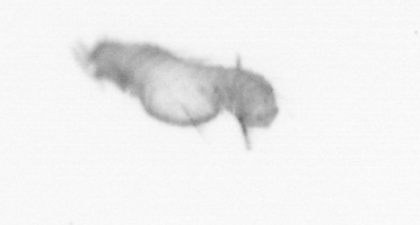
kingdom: Animalia
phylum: Annelida
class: Polychaeta
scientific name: Polychaeta
